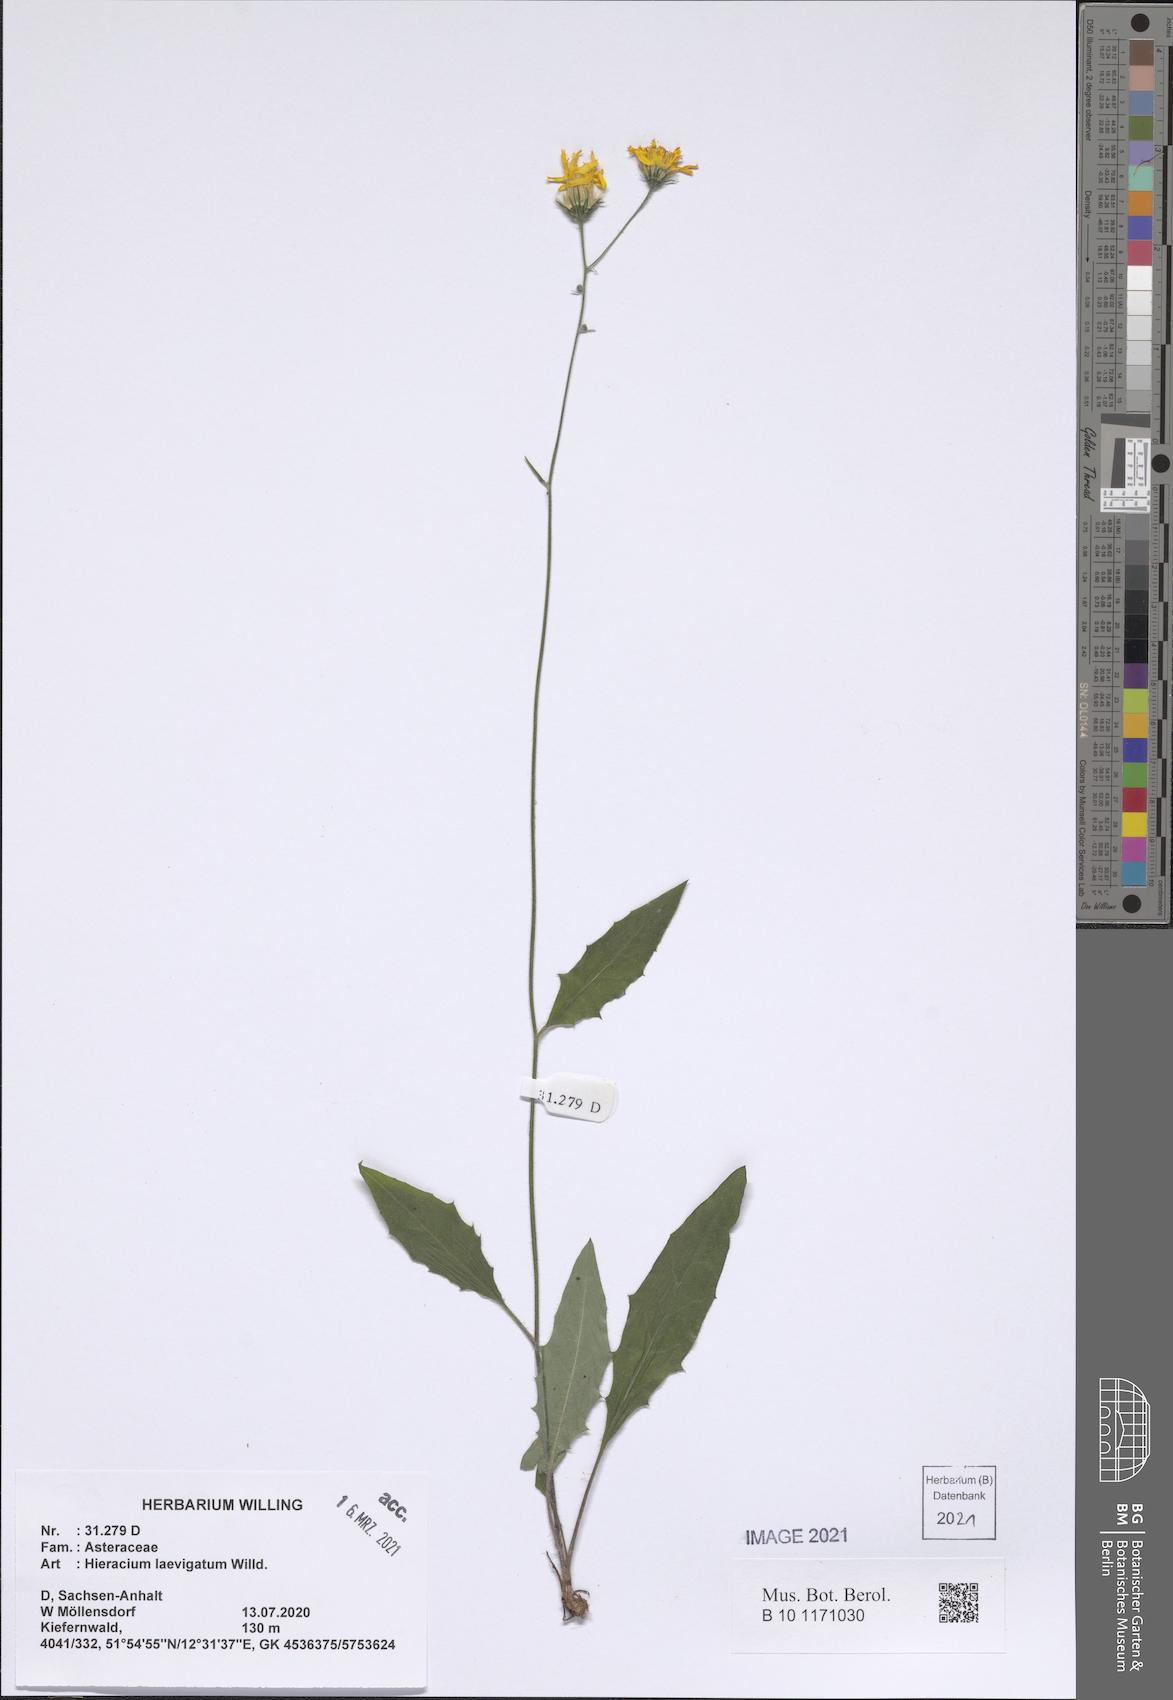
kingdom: Plantae
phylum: Tracheophyta
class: Magnoliopsida
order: Asterales
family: Asteraceae
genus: Hieracium
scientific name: Hieracium laevigatum
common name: Smooth hawkweed
